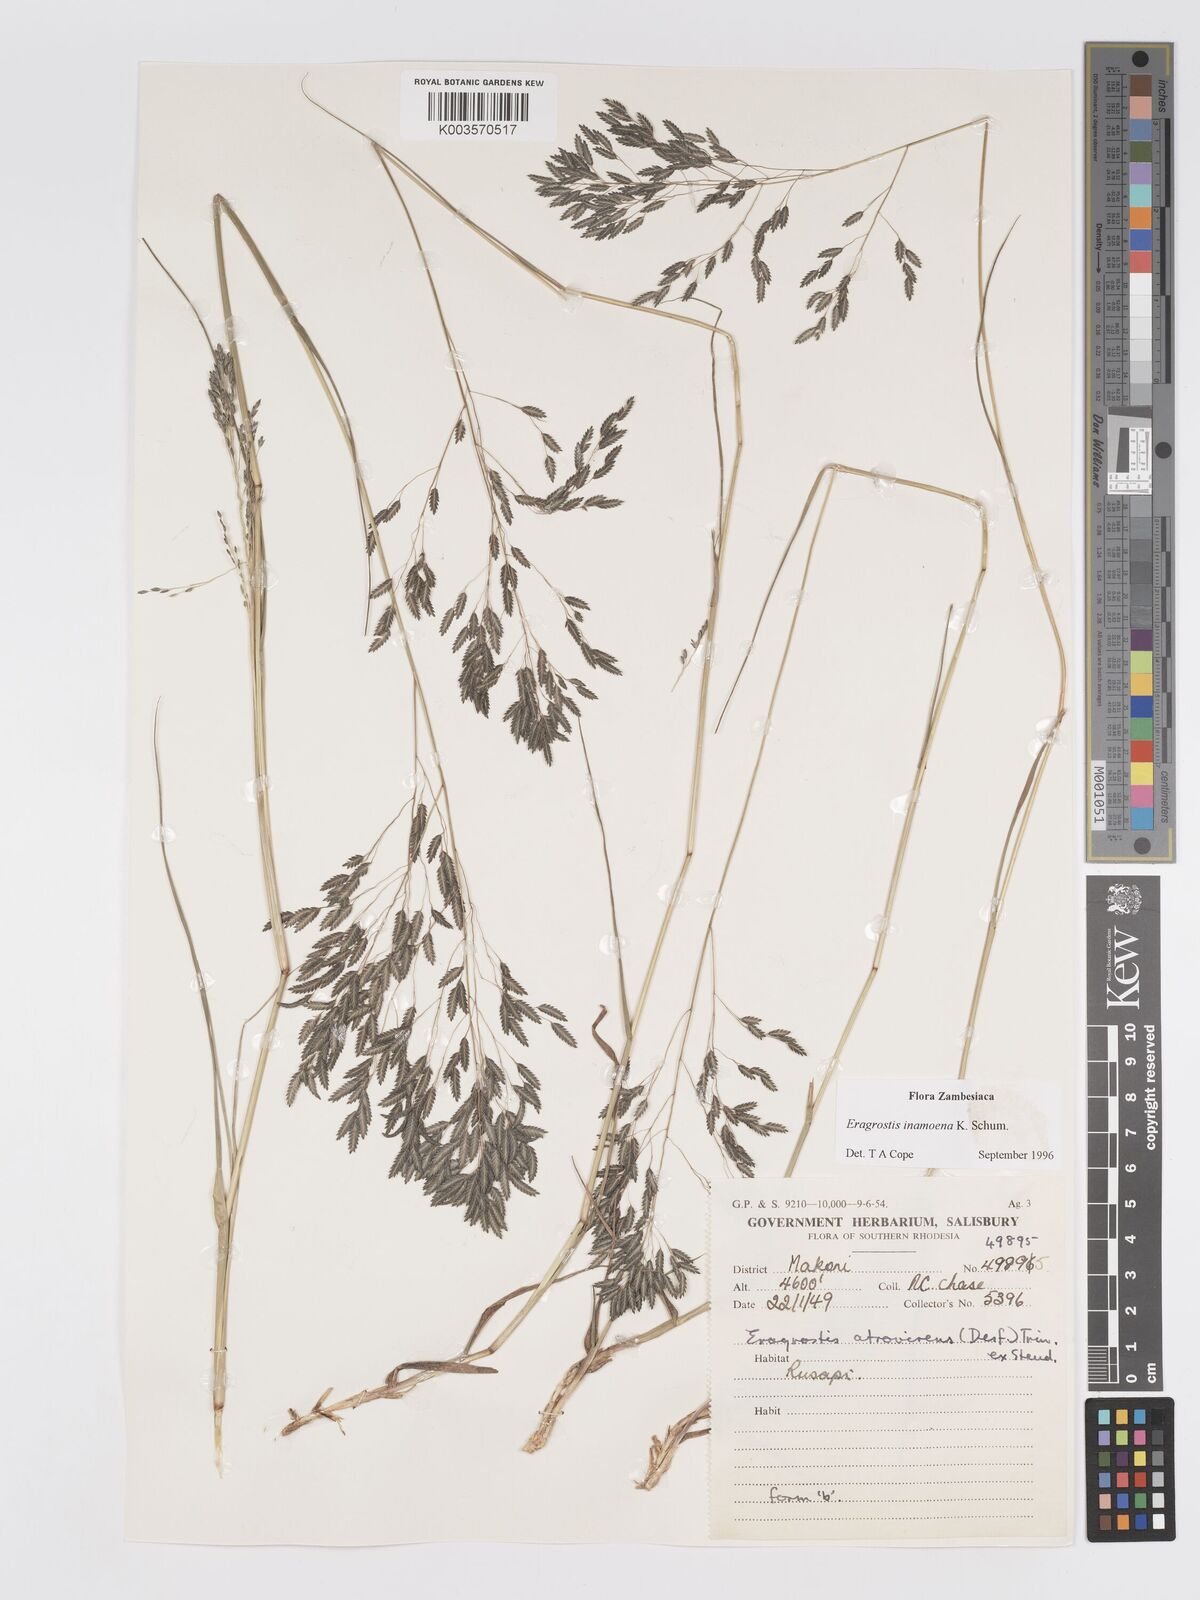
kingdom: Plantae
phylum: Tracheophyta
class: Liliopsida
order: Poales
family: Poaceae
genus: Eragrostis
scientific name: Eragrostis inamoena
